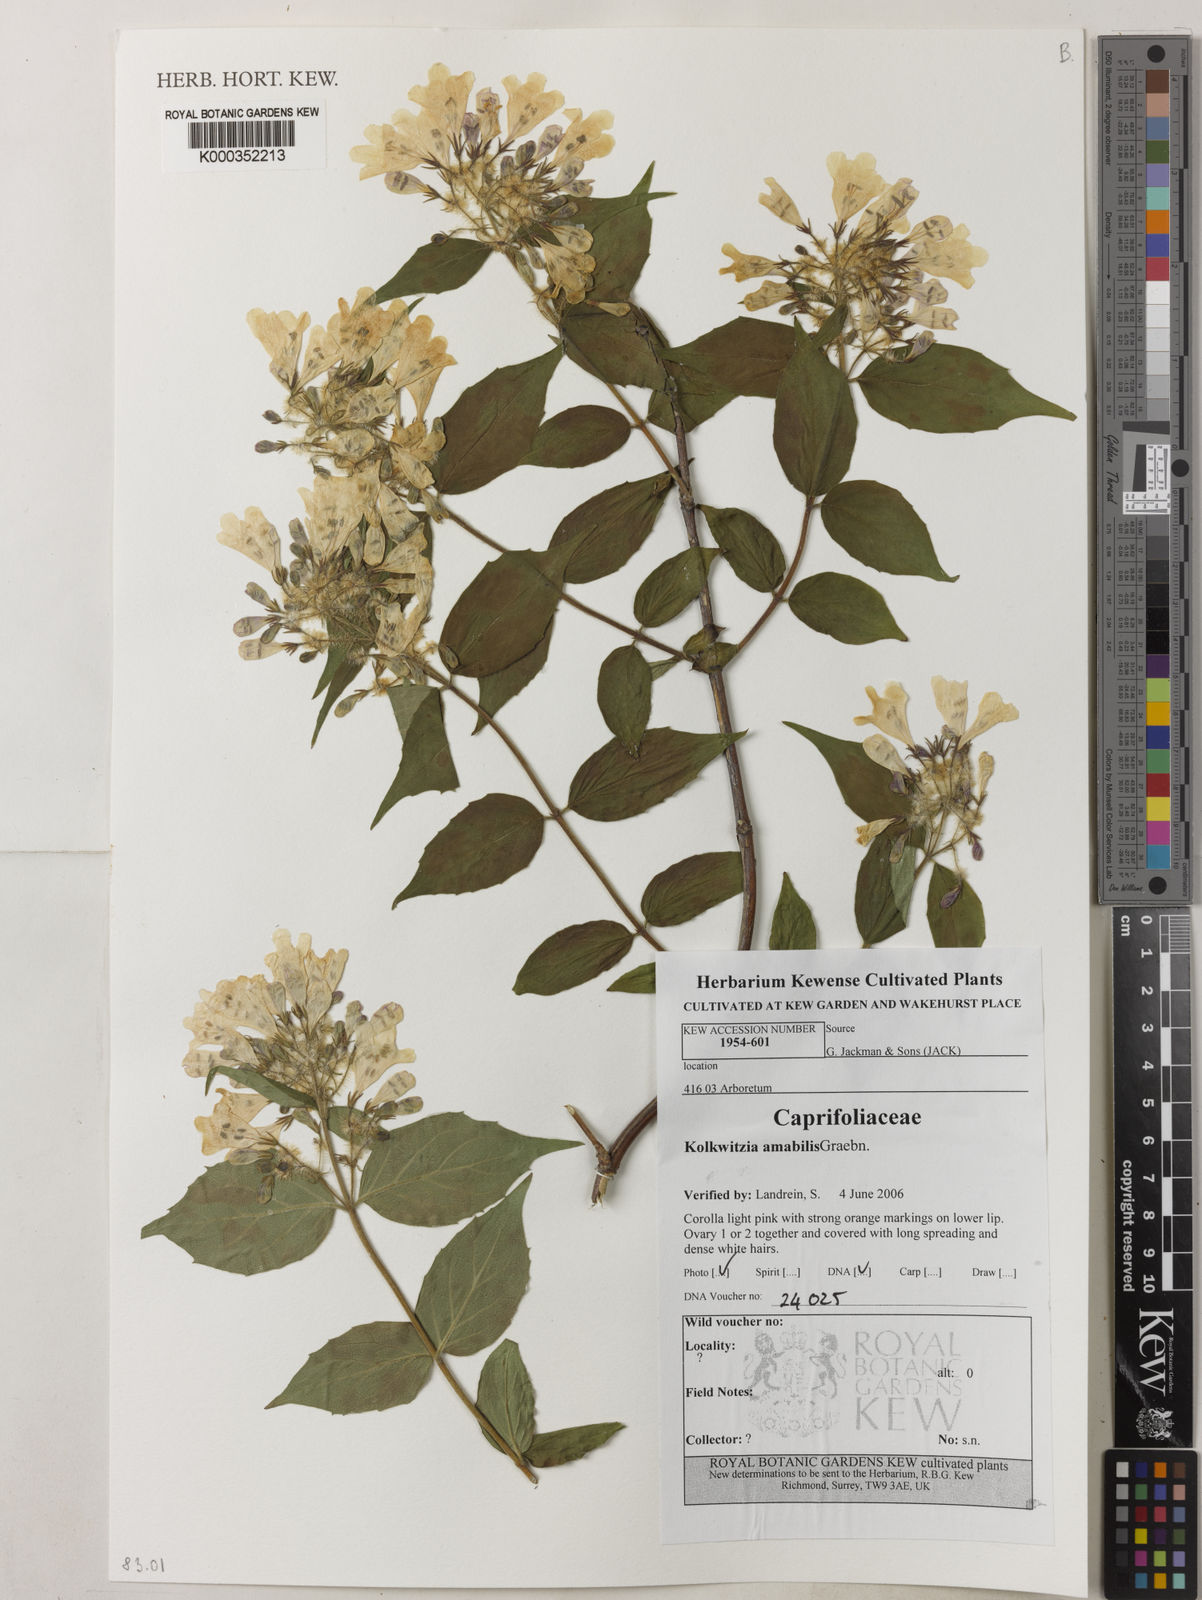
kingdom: Plantae
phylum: Tracheophyta
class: Magnoliopsida
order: Dipsacales
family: Caprifoliaceae
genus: Kolkwitzia
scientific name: Kolkwitzia amabilis
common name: Beautybush
